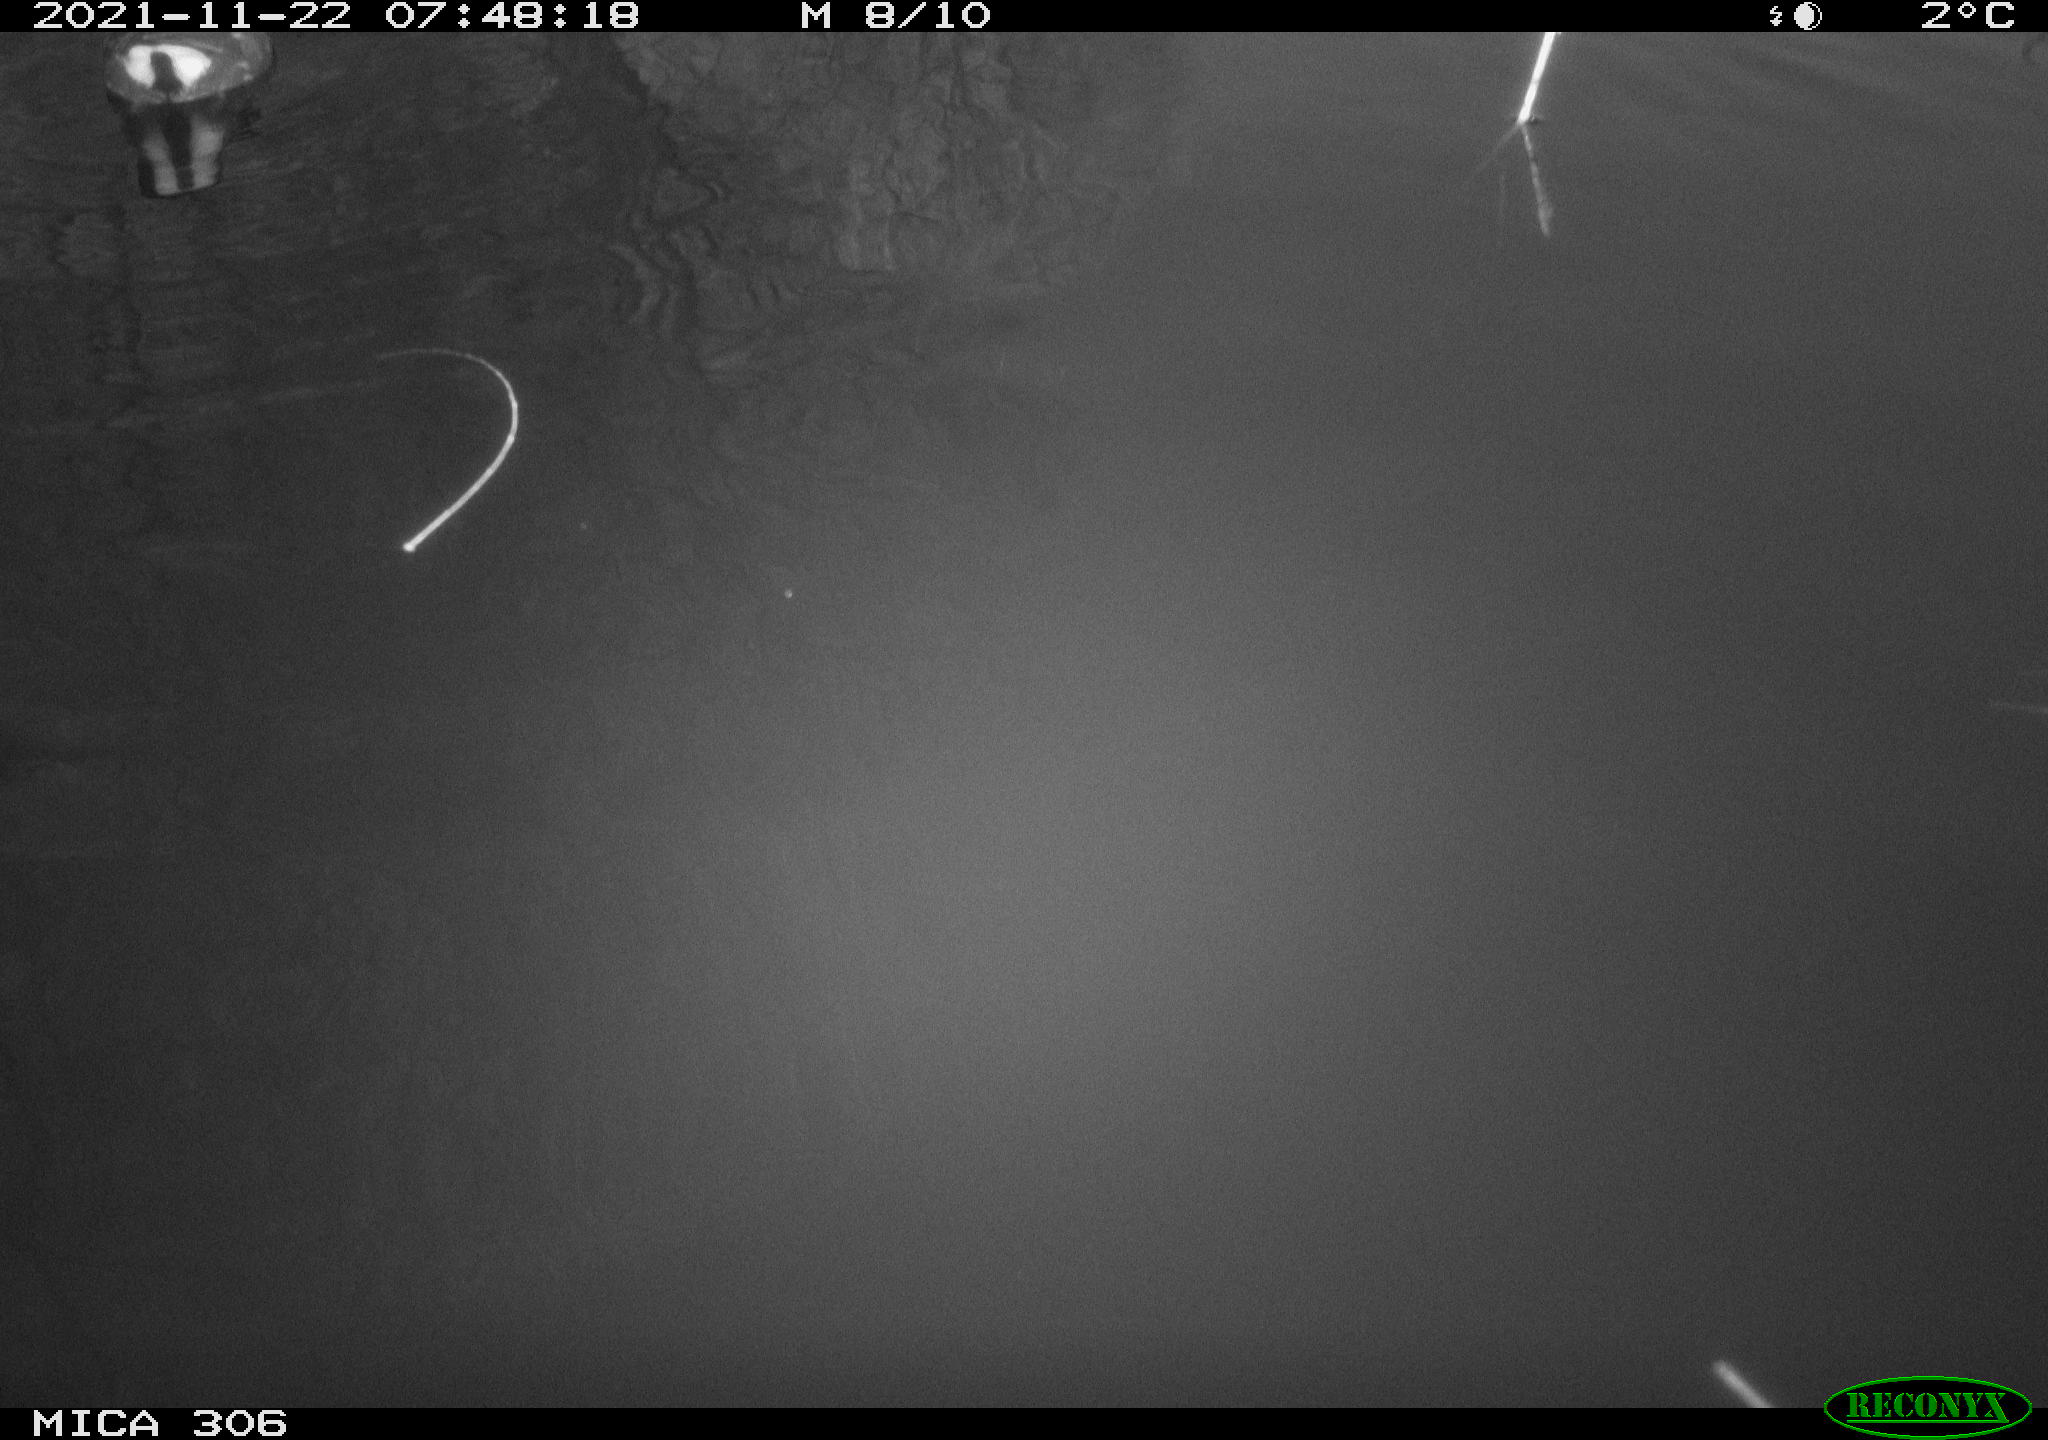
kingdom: Animalia
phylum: Chordata
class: Aves
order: Gruiformes
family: Rallidae
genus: Fulica
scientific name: Fulica atra
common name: Eurasian coot
